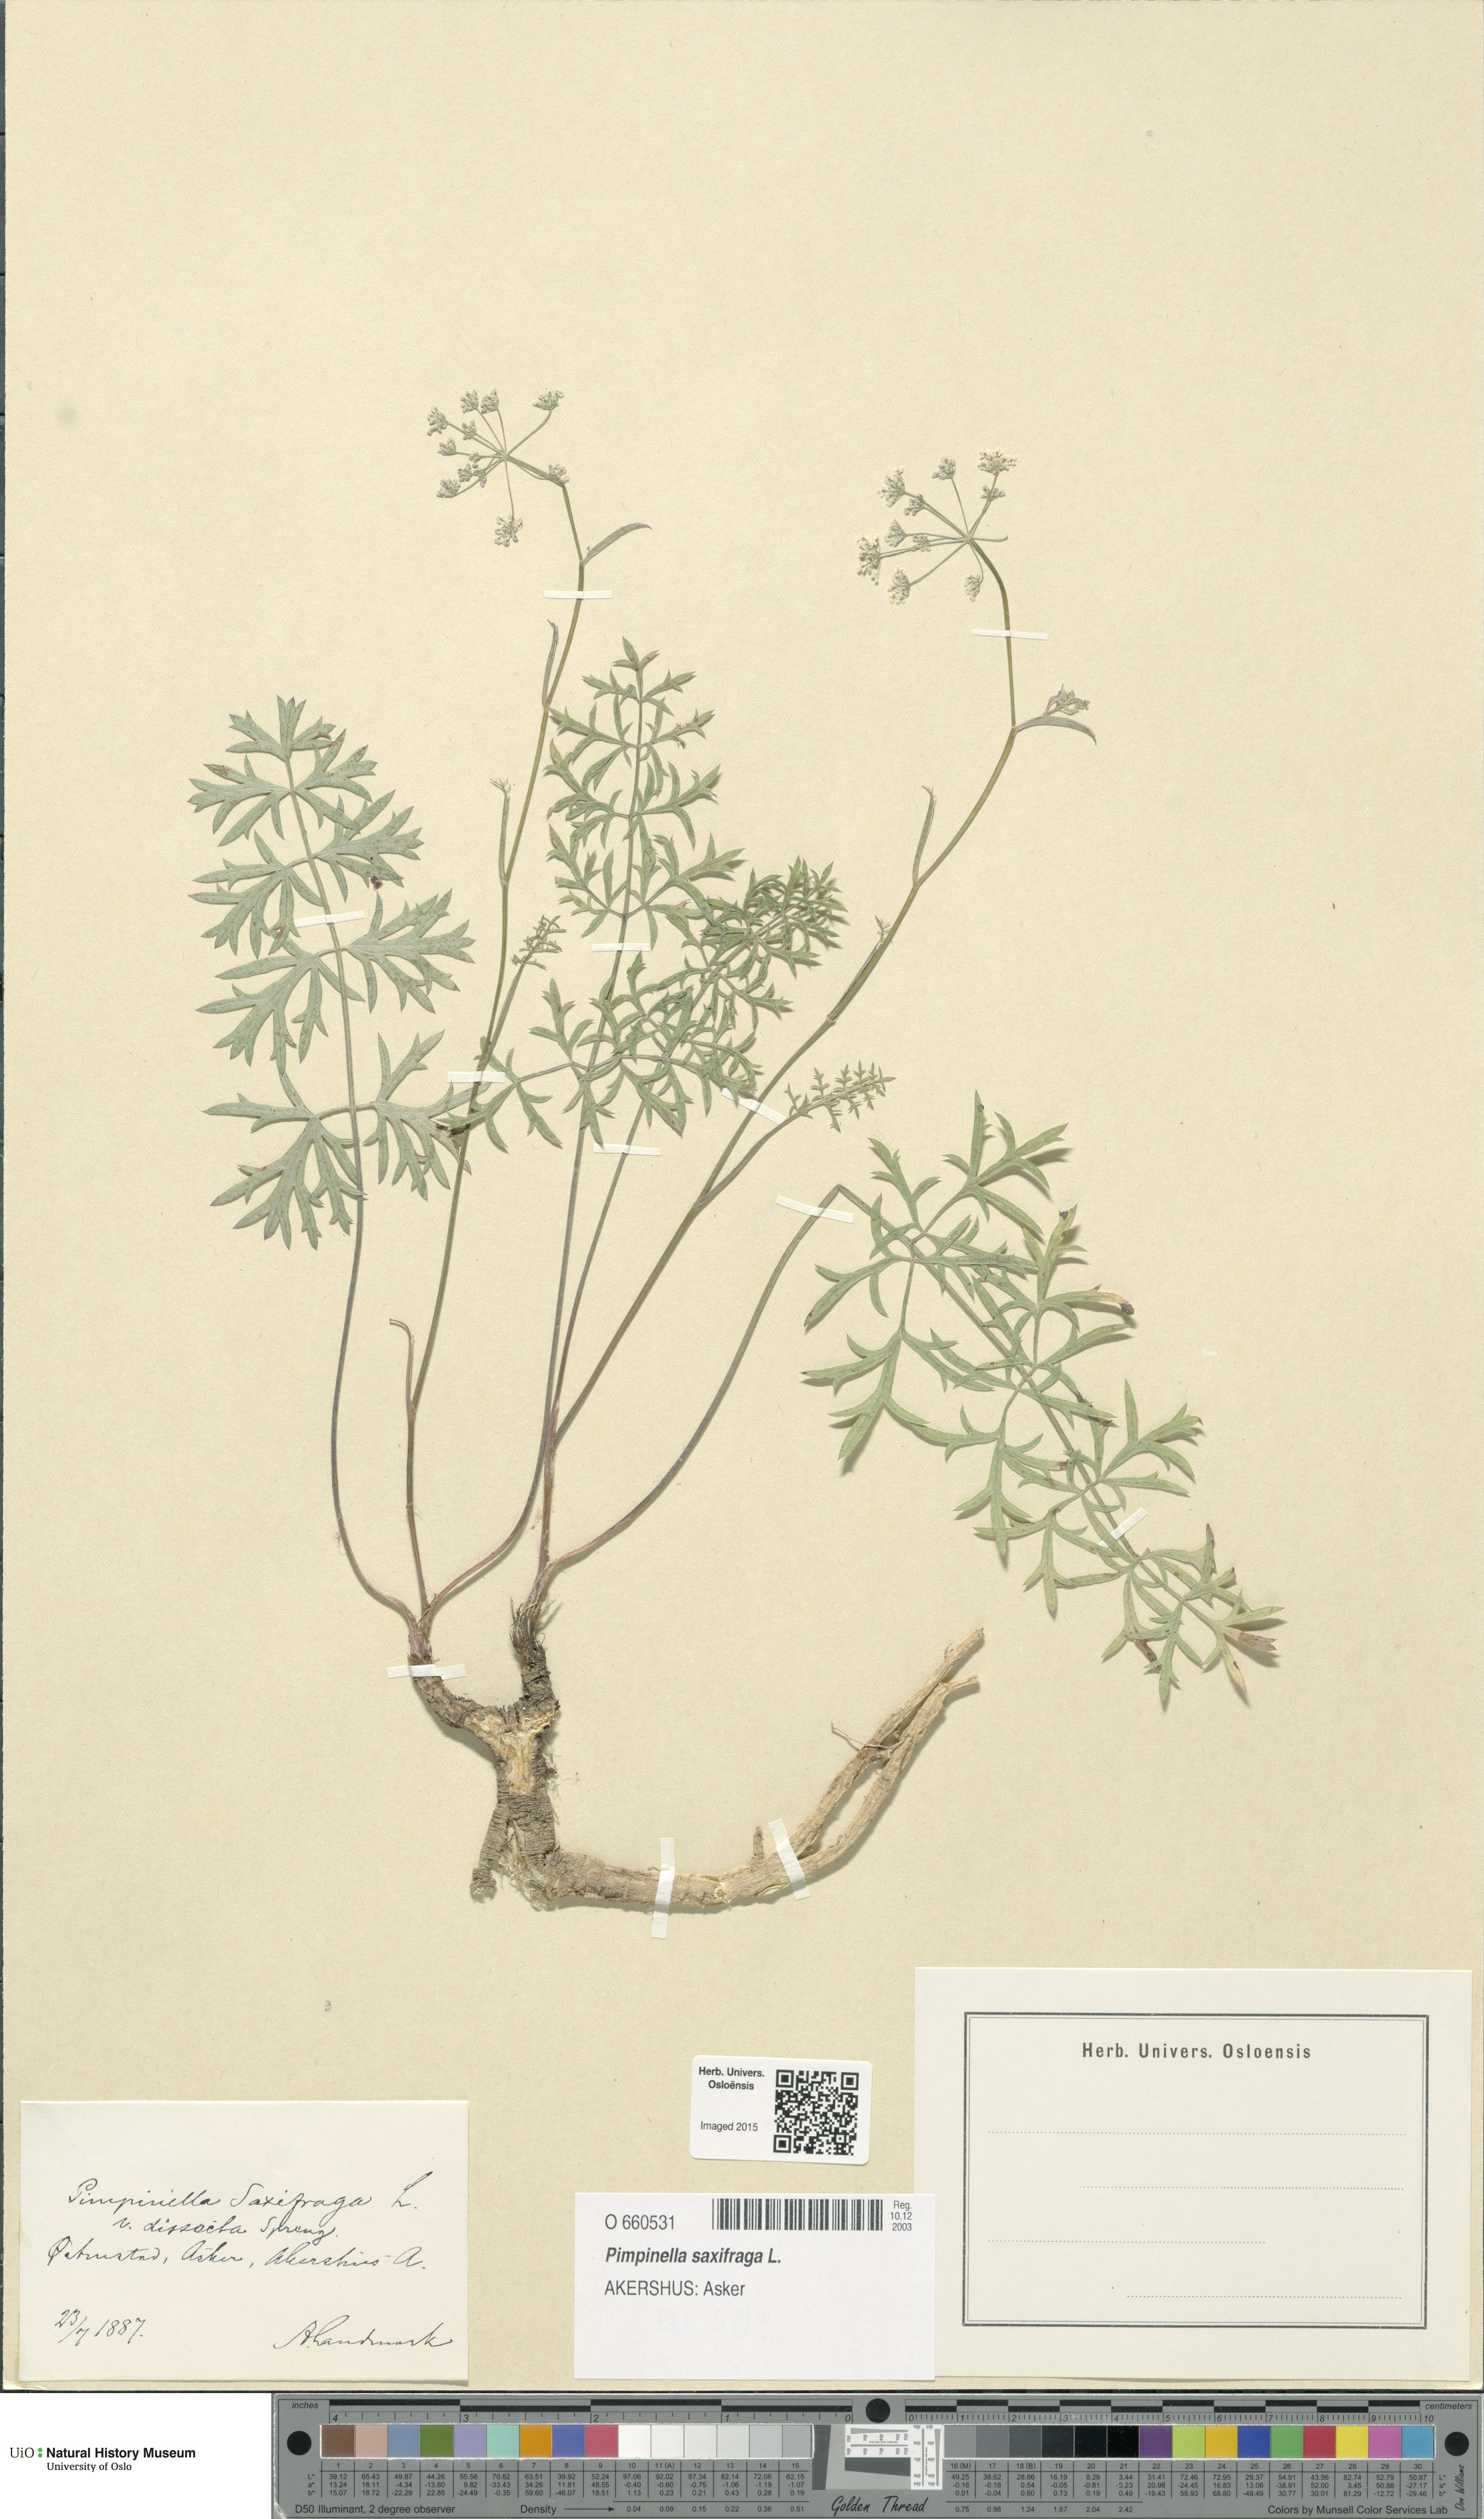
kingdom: Plantae
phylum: Tracheophyta
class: Magnoliopsida
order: Apiales
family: Apiaceae
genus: Pimpinella
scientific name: Pimpinella saxifraga
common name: Burnet-saxifrage
